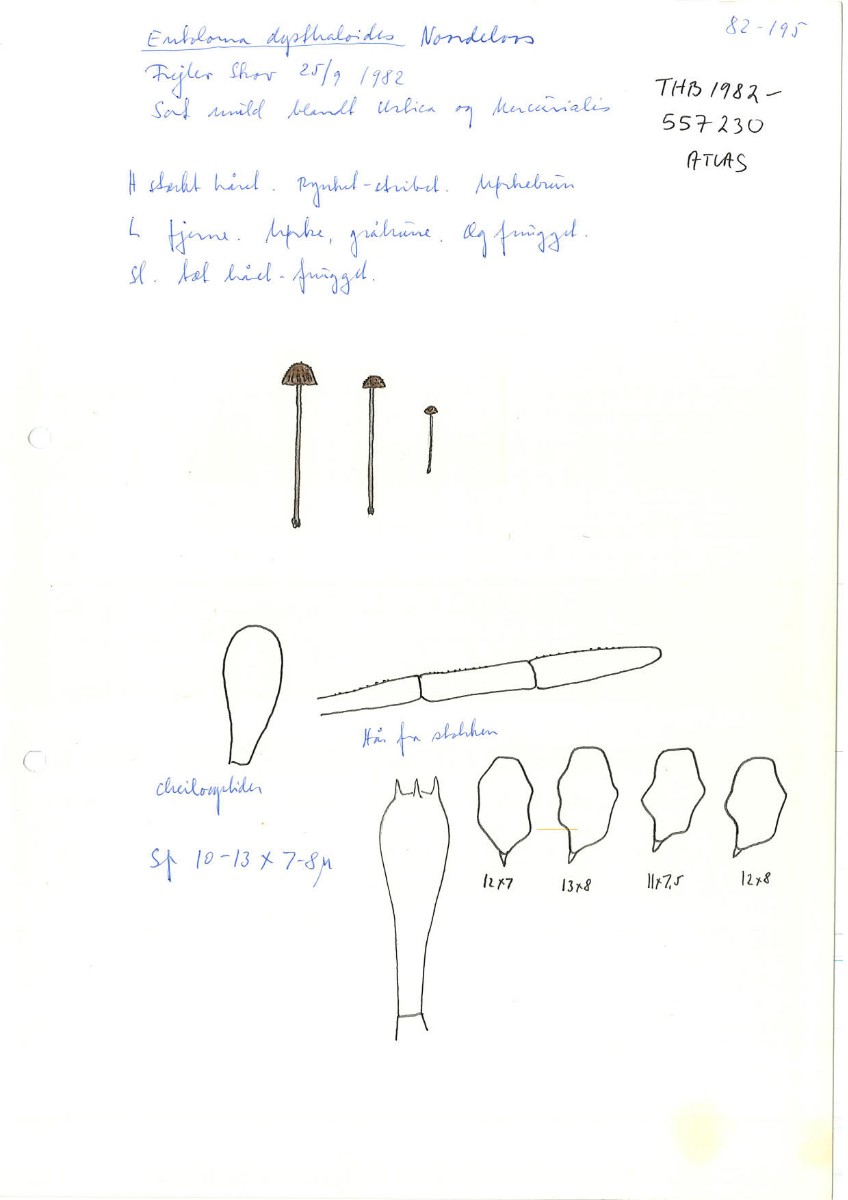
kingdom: Fungi
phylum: Basidiomycota
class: Agaricomycetes
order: Agaricales
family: Entolomataceae
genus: Entoloma
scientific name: Entoloma dysthaloides
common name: dyster rødblad
